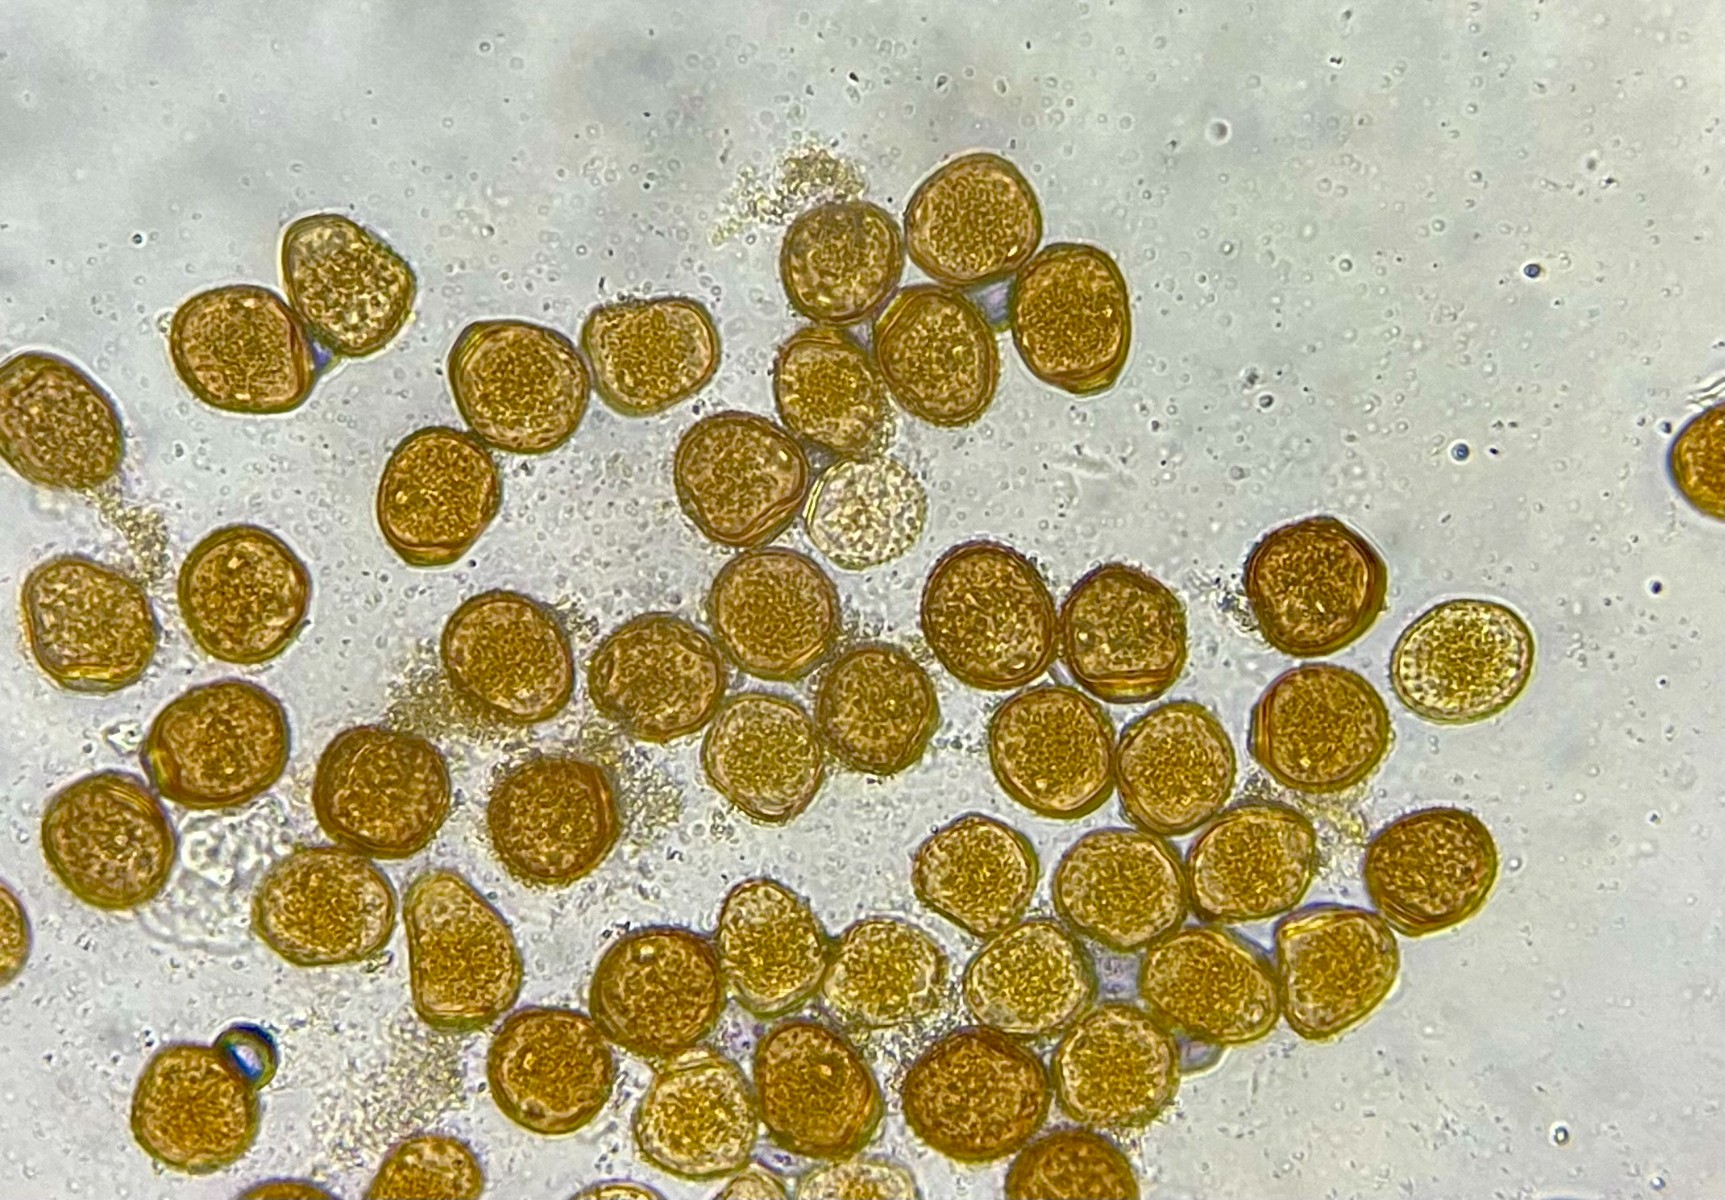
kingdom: Fungi
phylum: Basidiomycota
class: Pucciniomycetes
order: Pucciniales
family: Pucciniaceae
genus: Puccinia
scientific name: Puccinia calcitrapae
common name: Rust fungus
